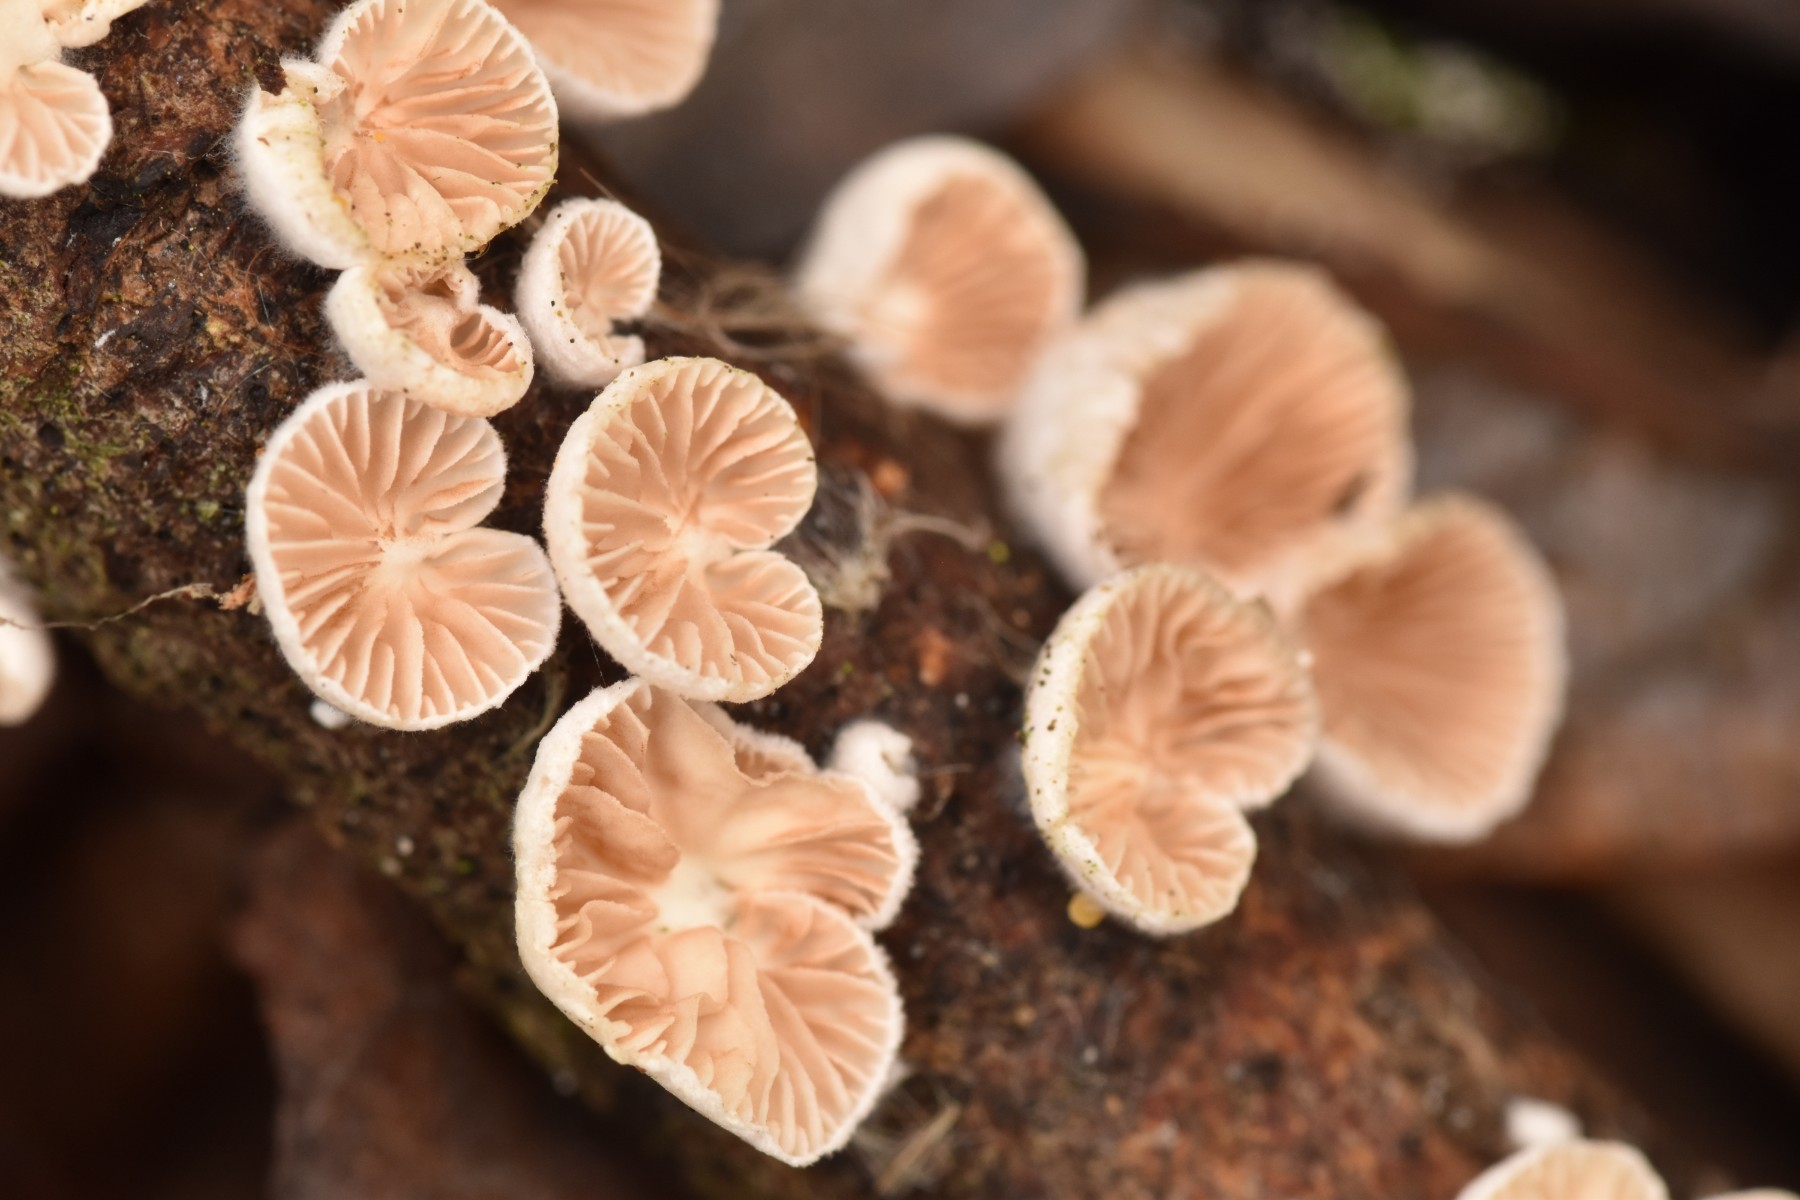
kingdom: Fungi
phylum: Basidiomycota
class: Agaricomycetes
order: Agaricales
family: Crepidotaceae
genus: Crepidotus
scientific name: Crepidotus cesatii
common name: almindelig muslingesvamp
